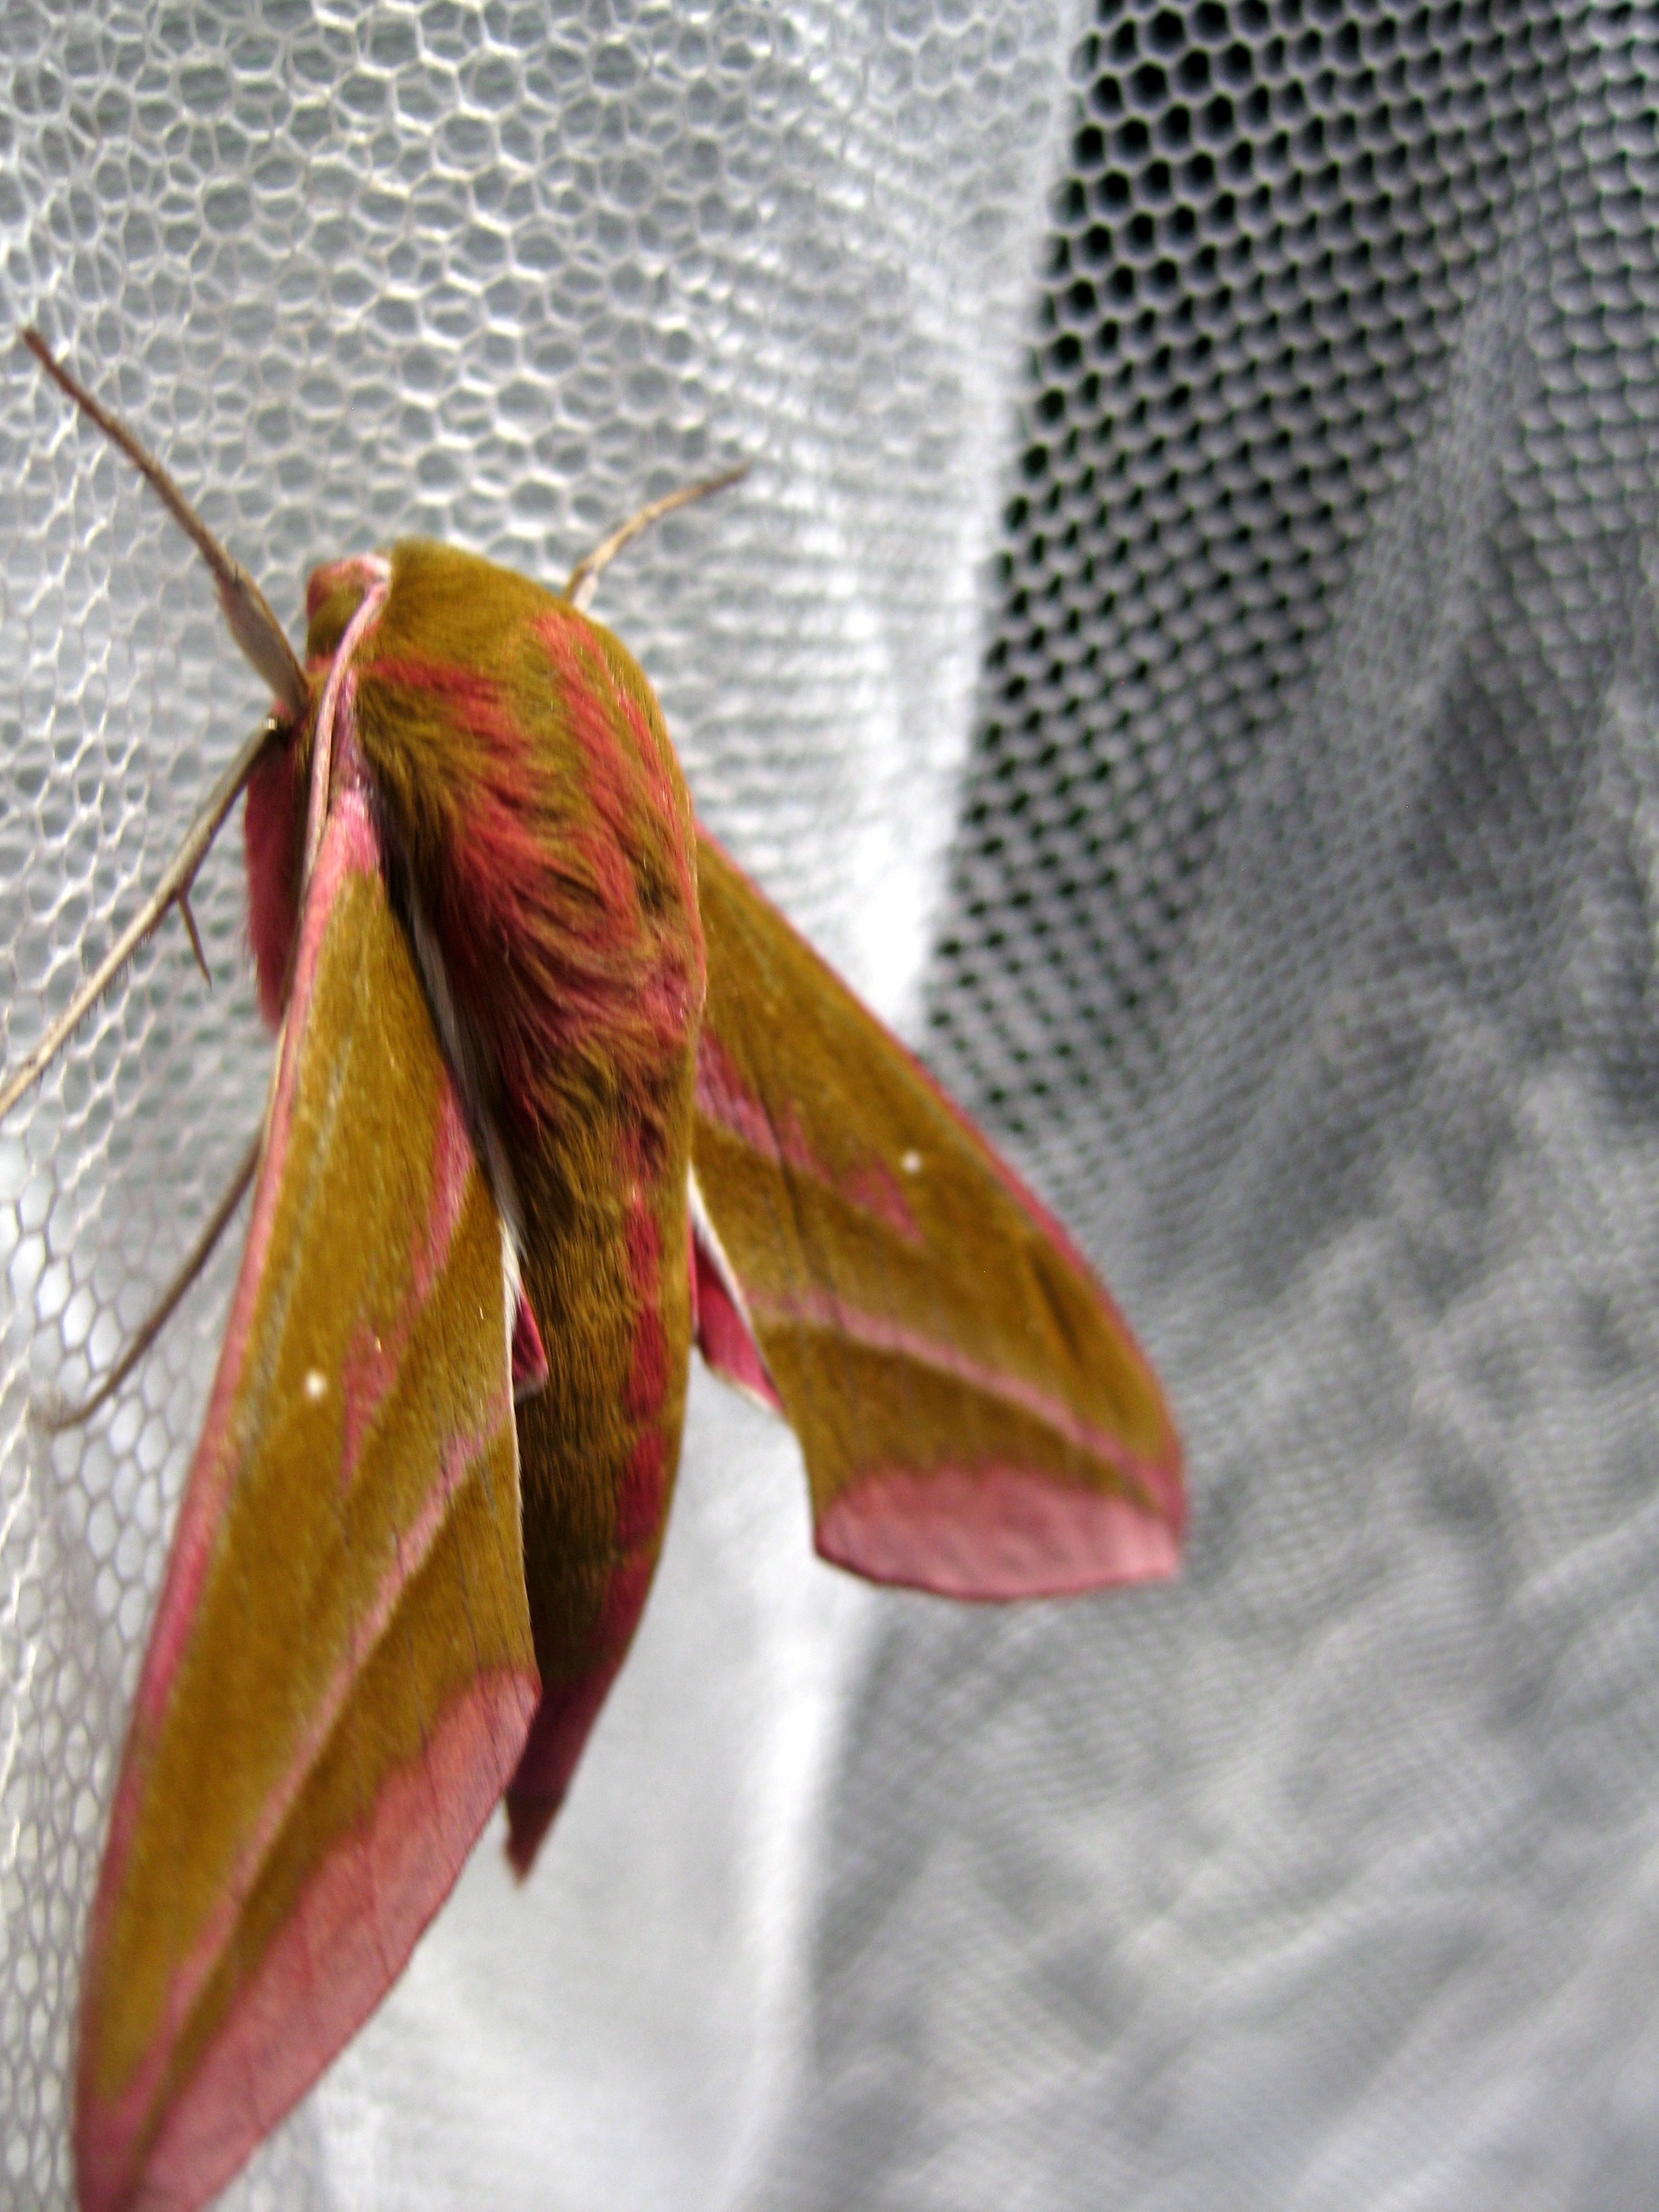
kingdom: Animalia
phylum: Arthropoda
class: Insecta
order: Lepidoptera
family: Sphingidae
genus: Deilephila
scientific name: Deilephila elpenor
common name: Dueurtsværmer
